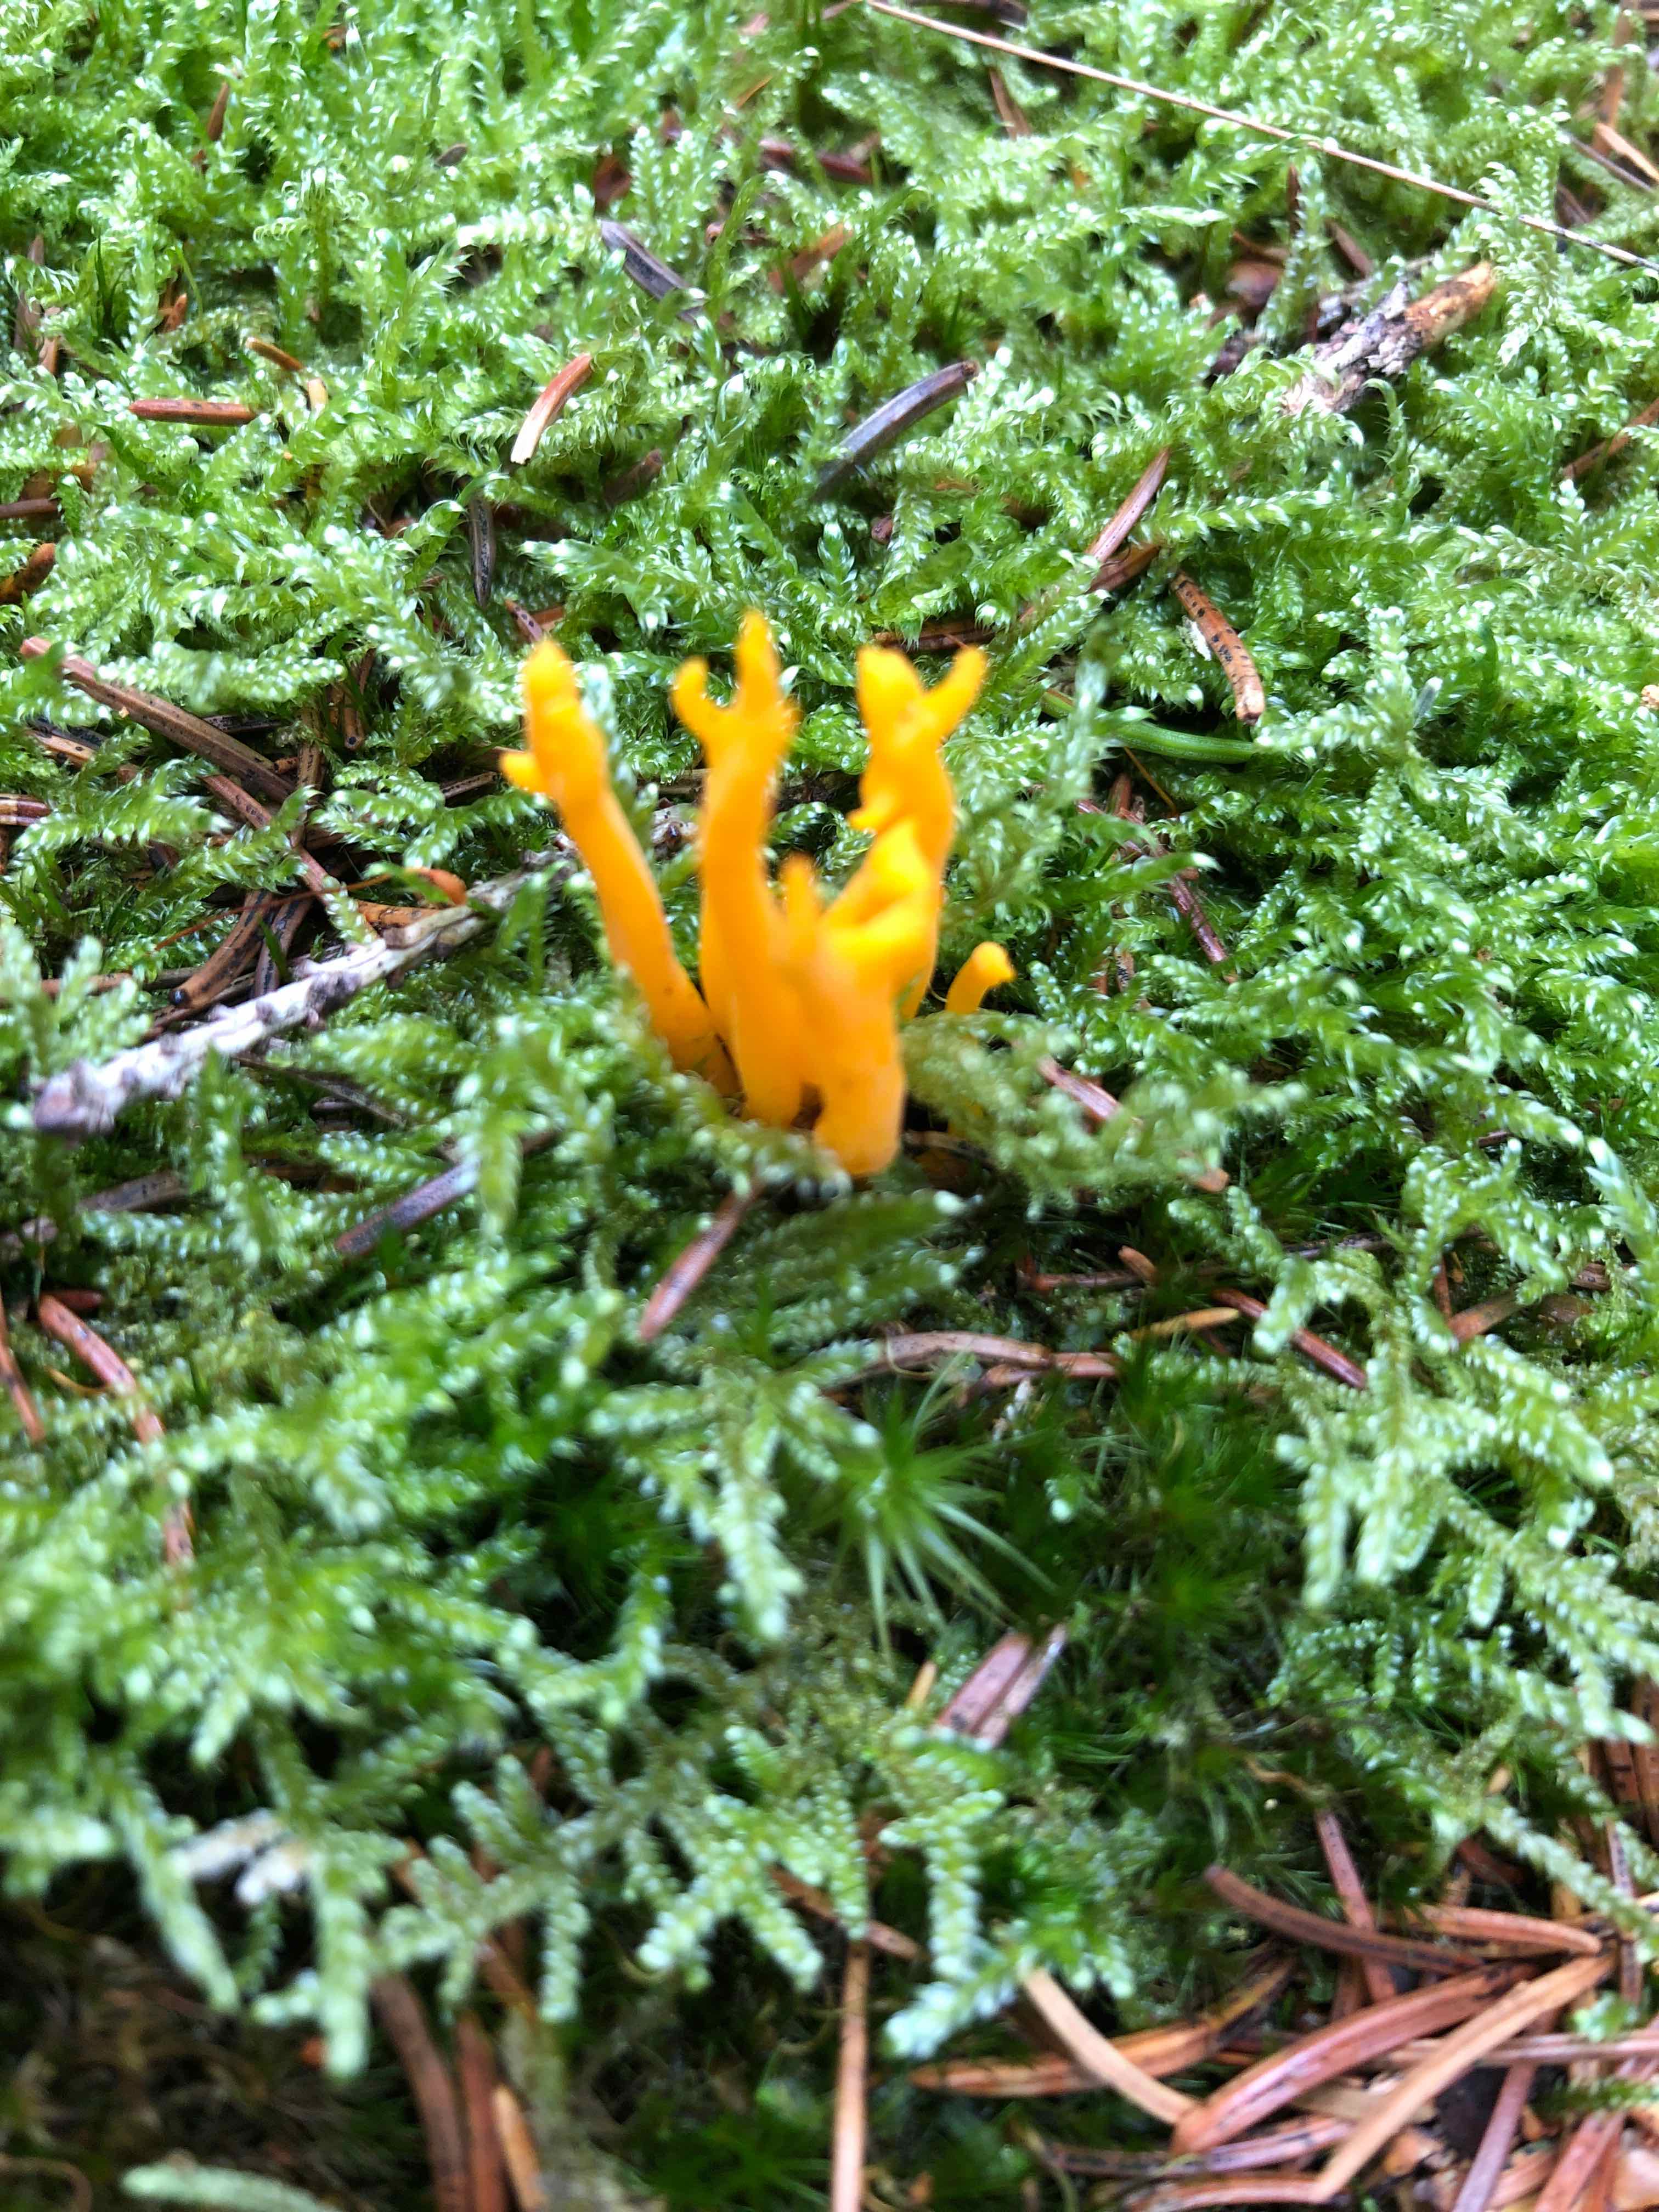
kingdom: Fungi
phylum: Basidiomycota
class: Dacrymycetes
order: Dacrymycetales
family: Dacrymycetaceae
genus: Calocera
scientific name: Calocera viscosa
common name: almindelig guldgaffel
